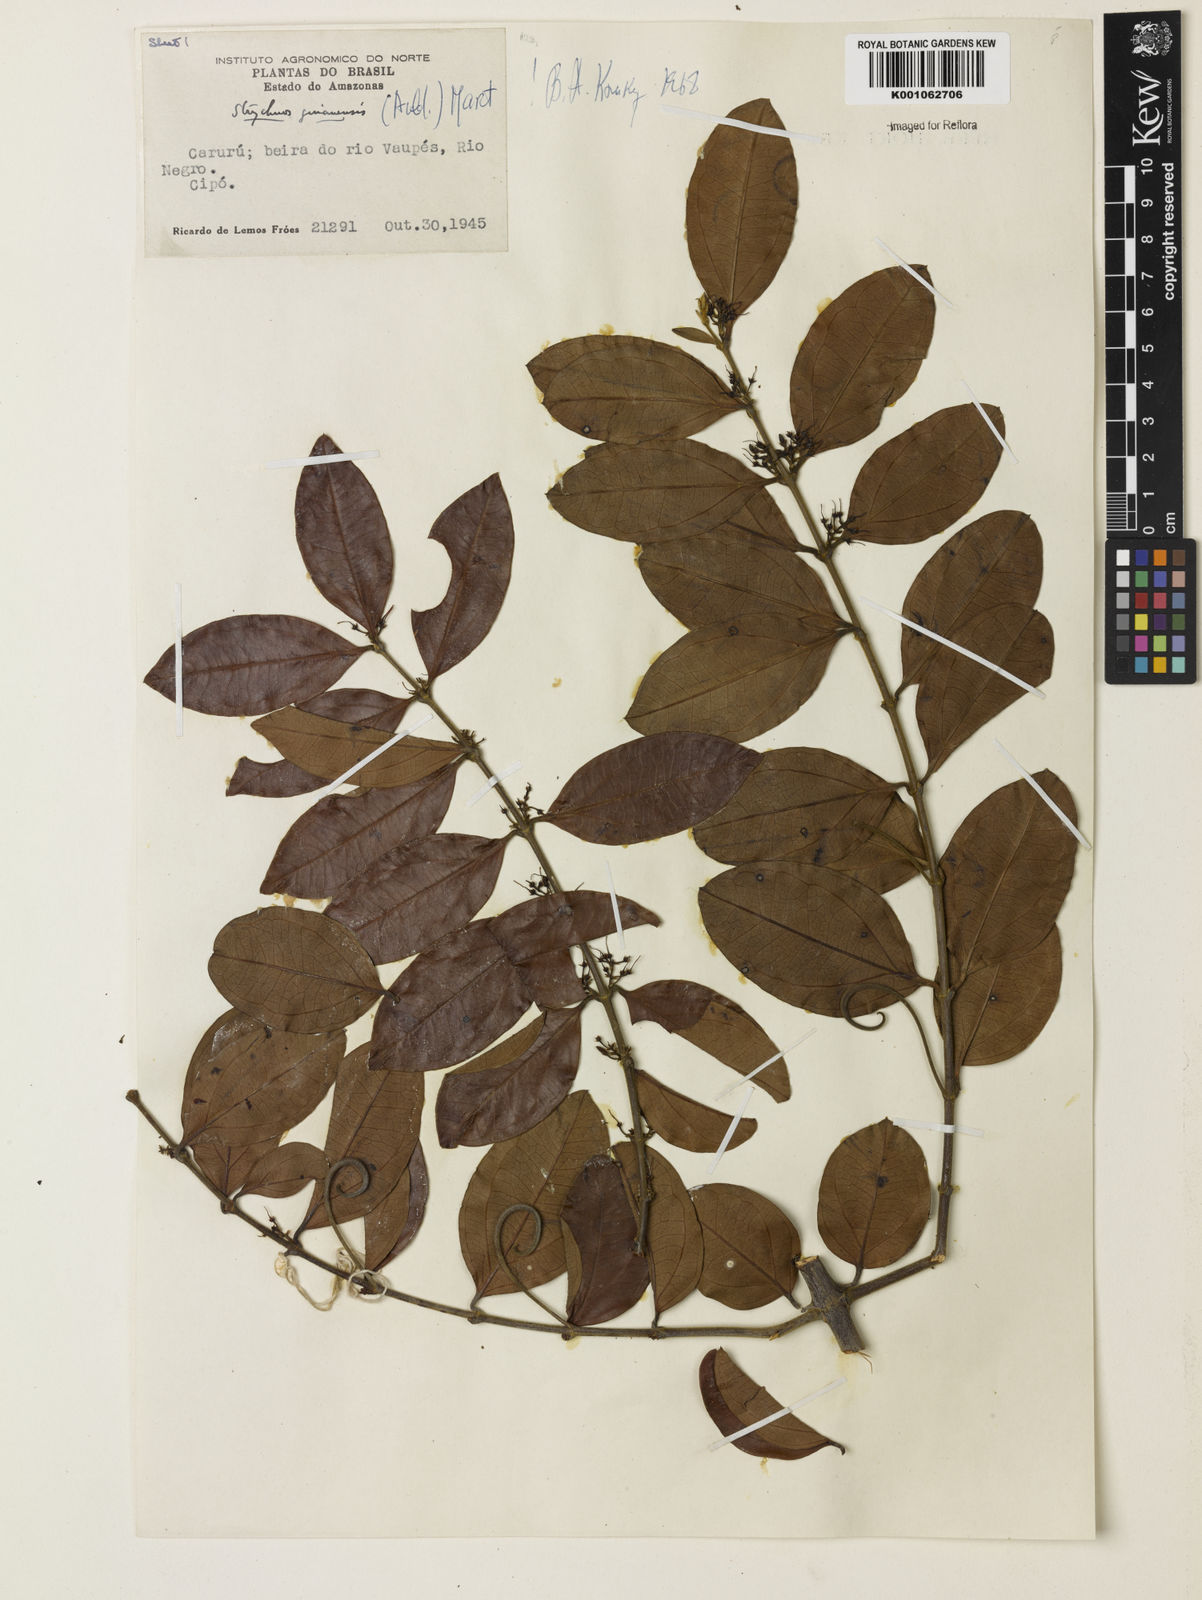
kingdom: Plantae
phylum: Tracheophyta
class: Magnoliopsida
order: Gentianales
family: Loganiaceae
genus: Strychnos
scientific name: Strychnos guianensis
